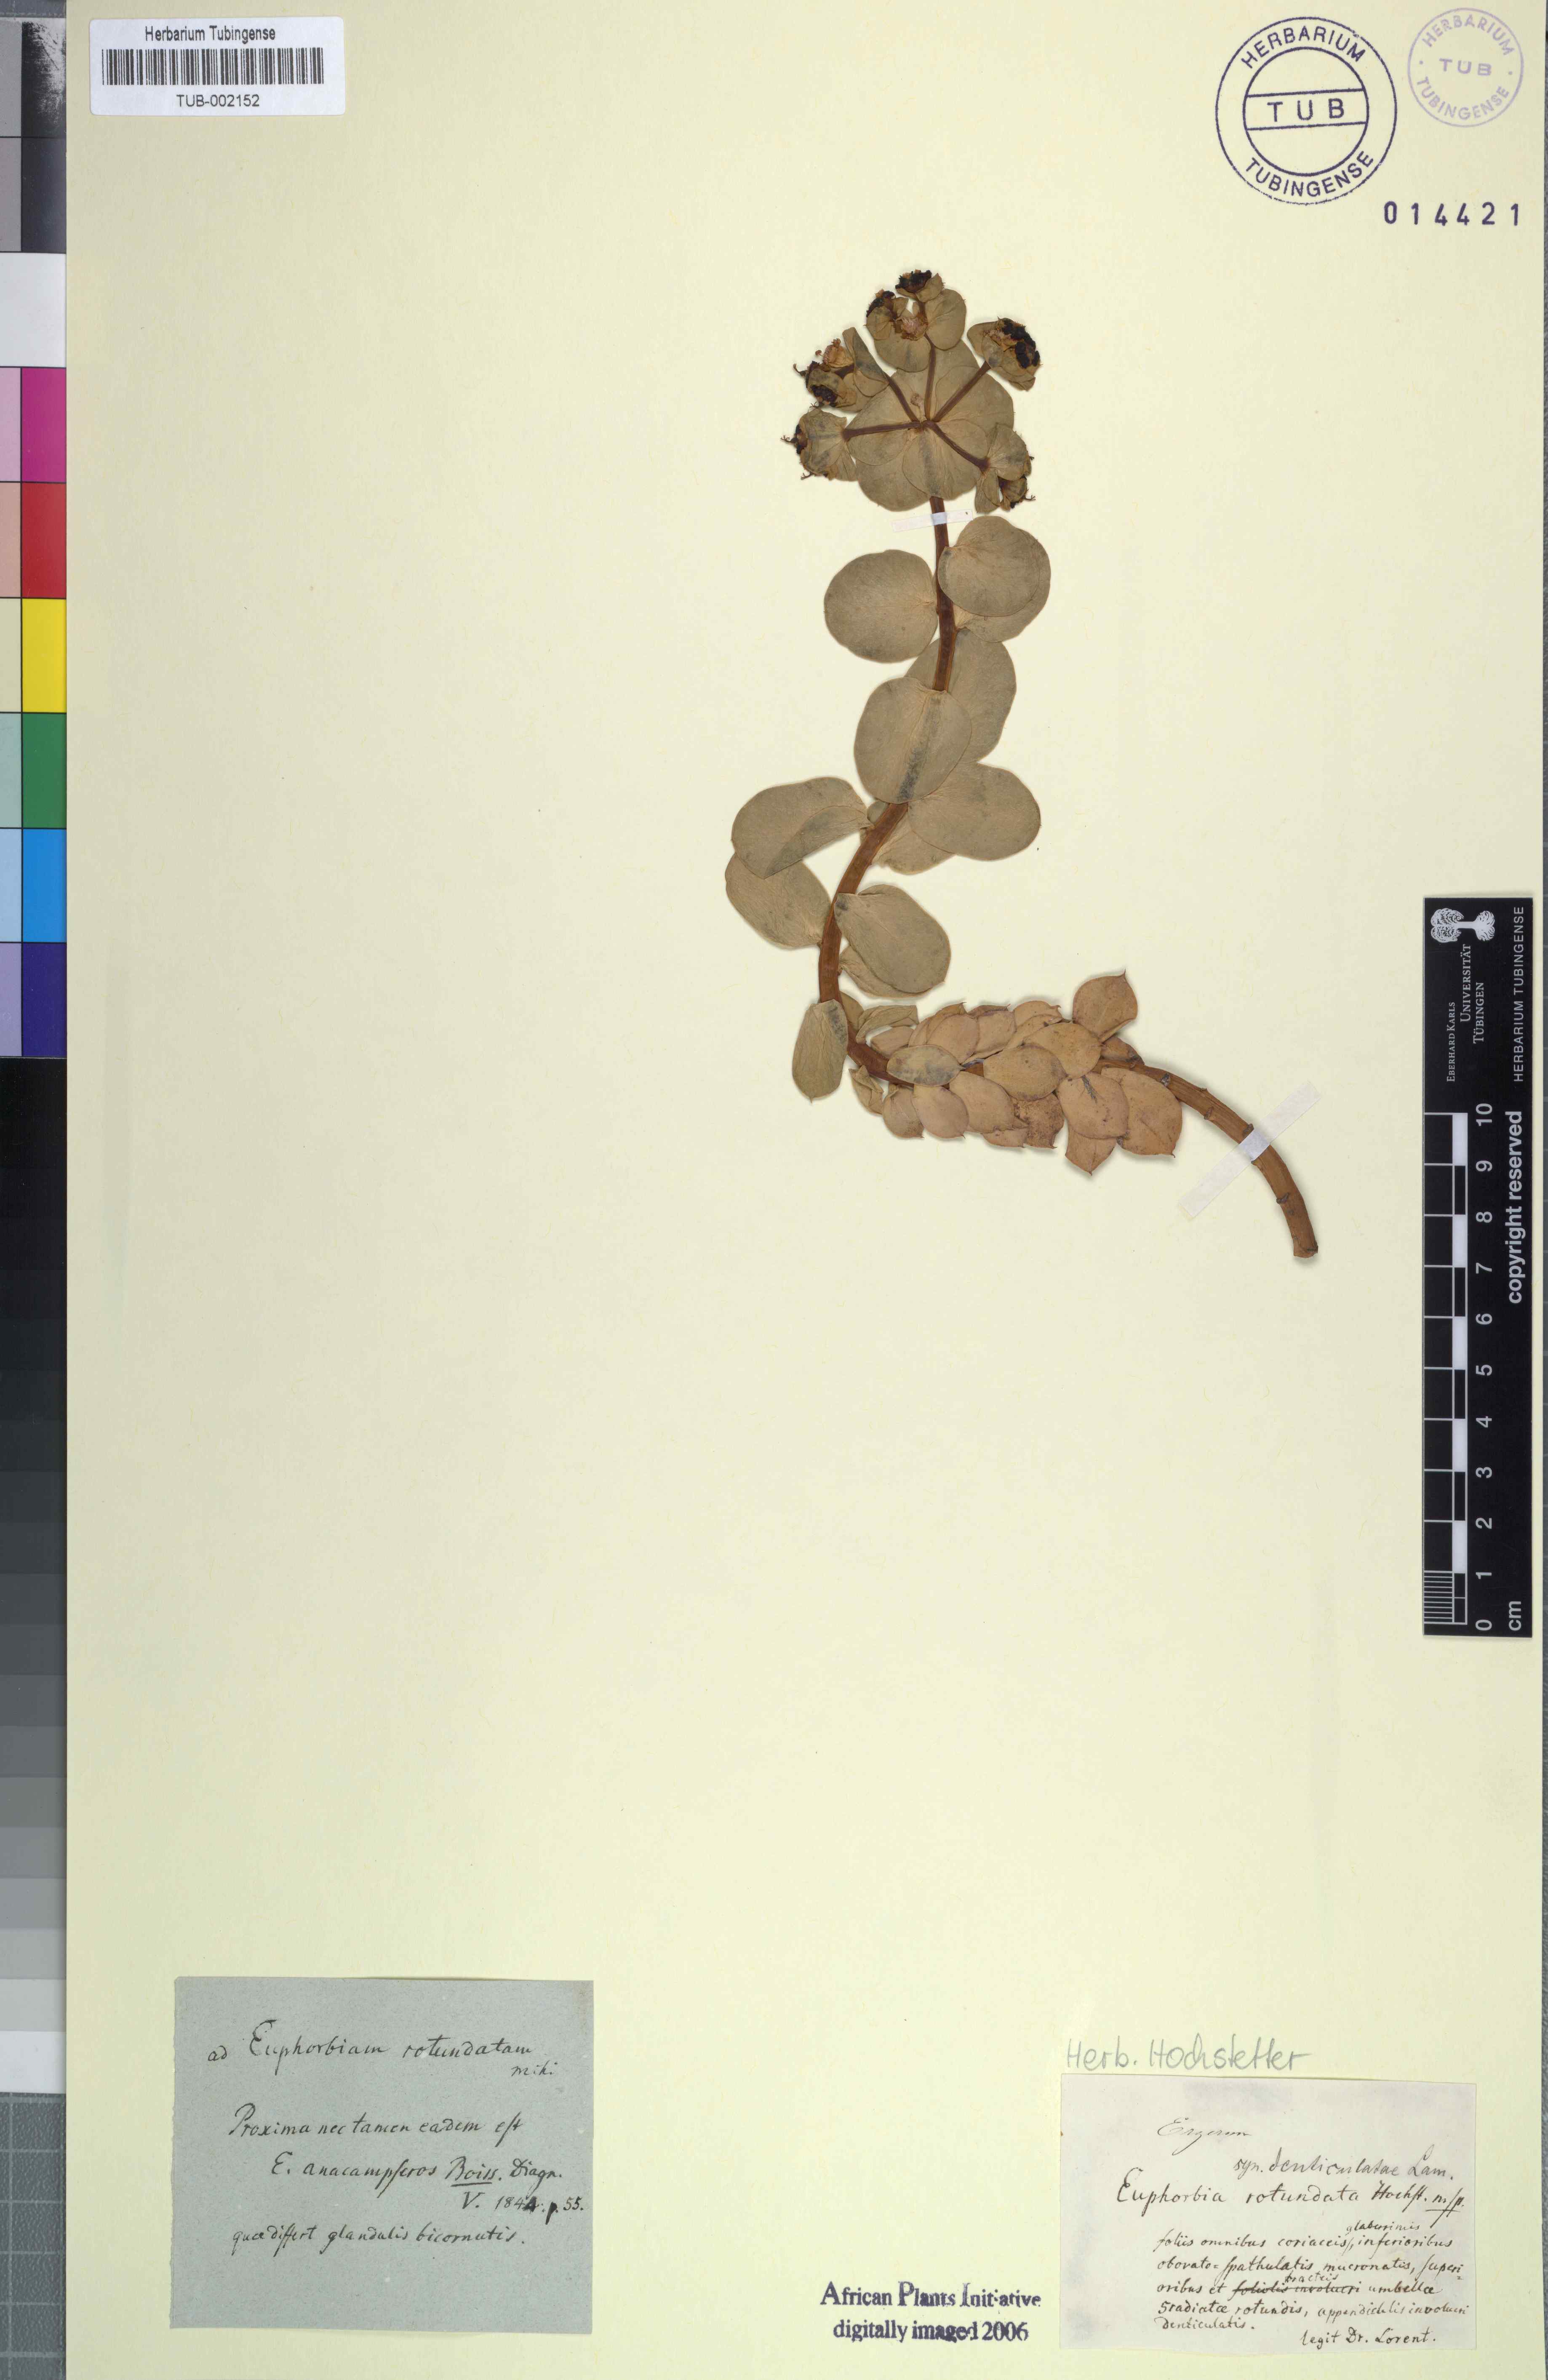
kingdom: Plantae
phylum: Tracheophyta
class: Magnoliopsida
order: Malpighiales
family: Euphorbiaceae
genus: Euphorbia
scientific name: Euphorbia denticulata
